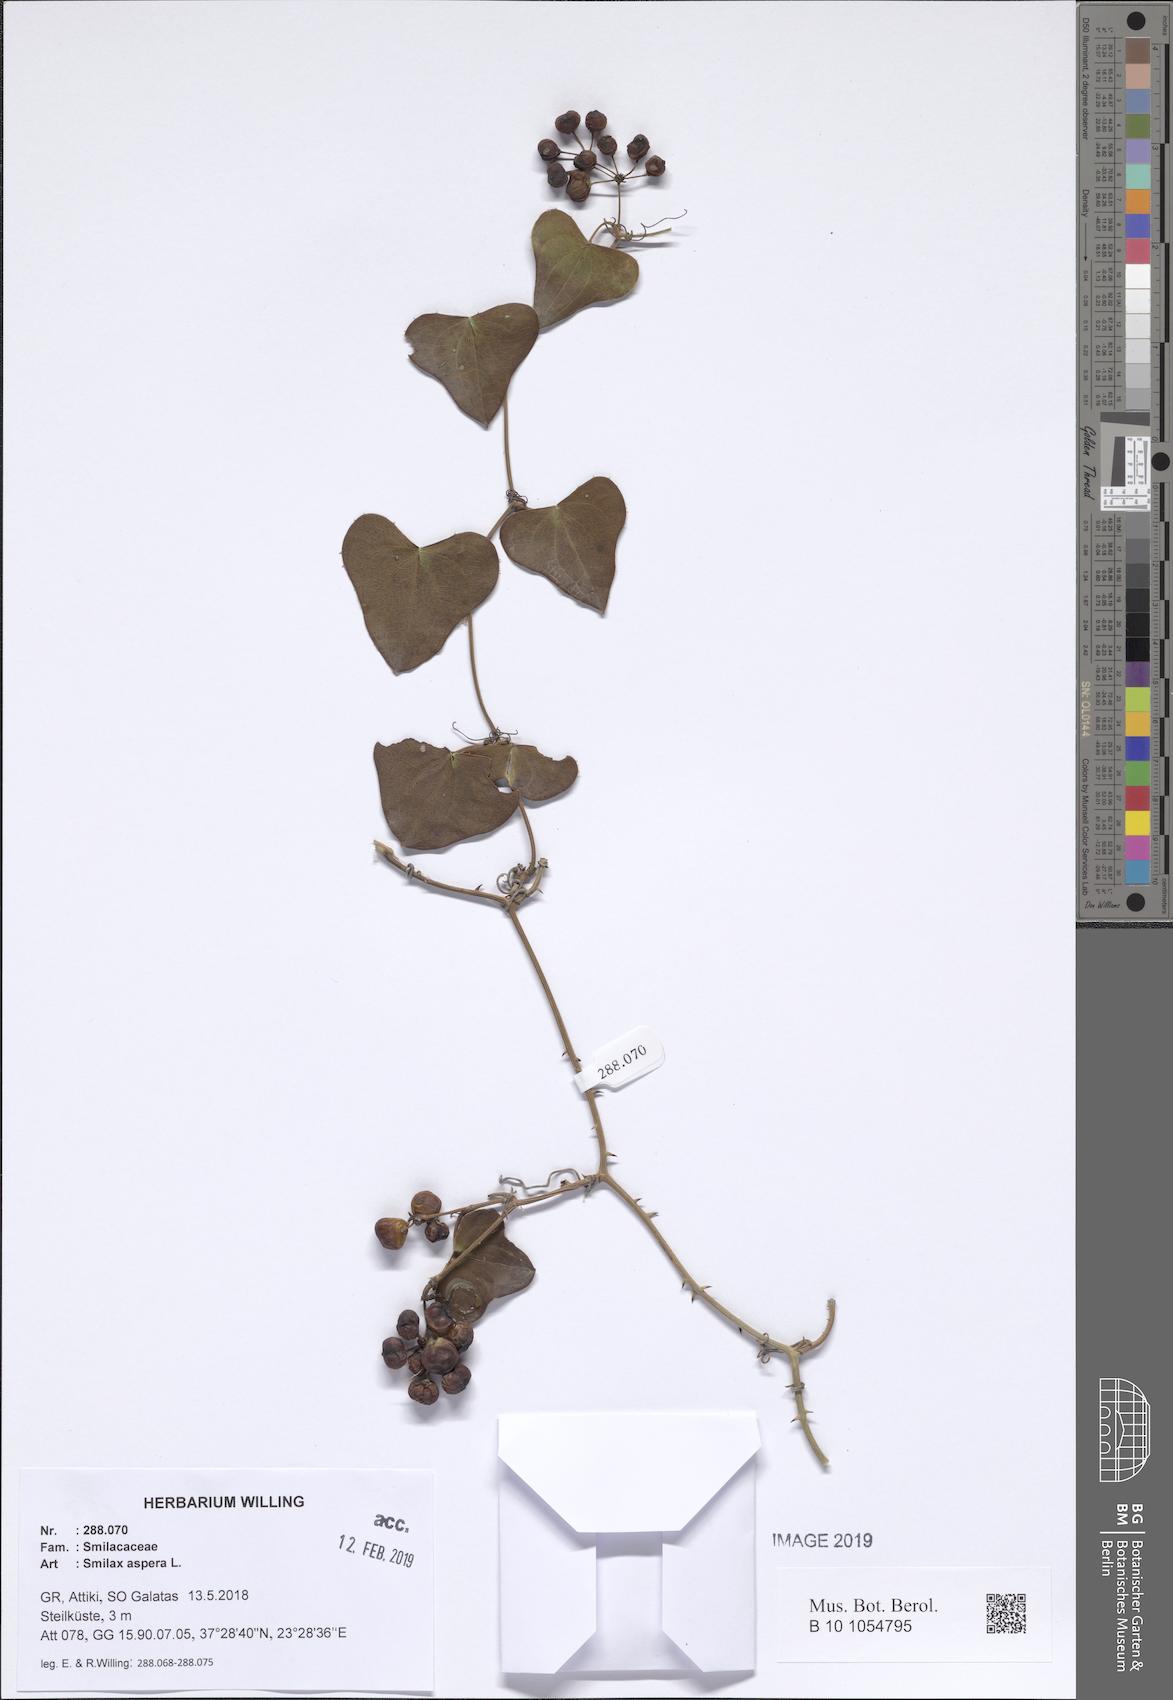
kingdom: Plantae
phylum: Tracheophyta
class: Liliopsida
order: Liliales
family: Smilacaceae
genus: Smilax
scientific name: Smilax aspera
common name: Common smilax
